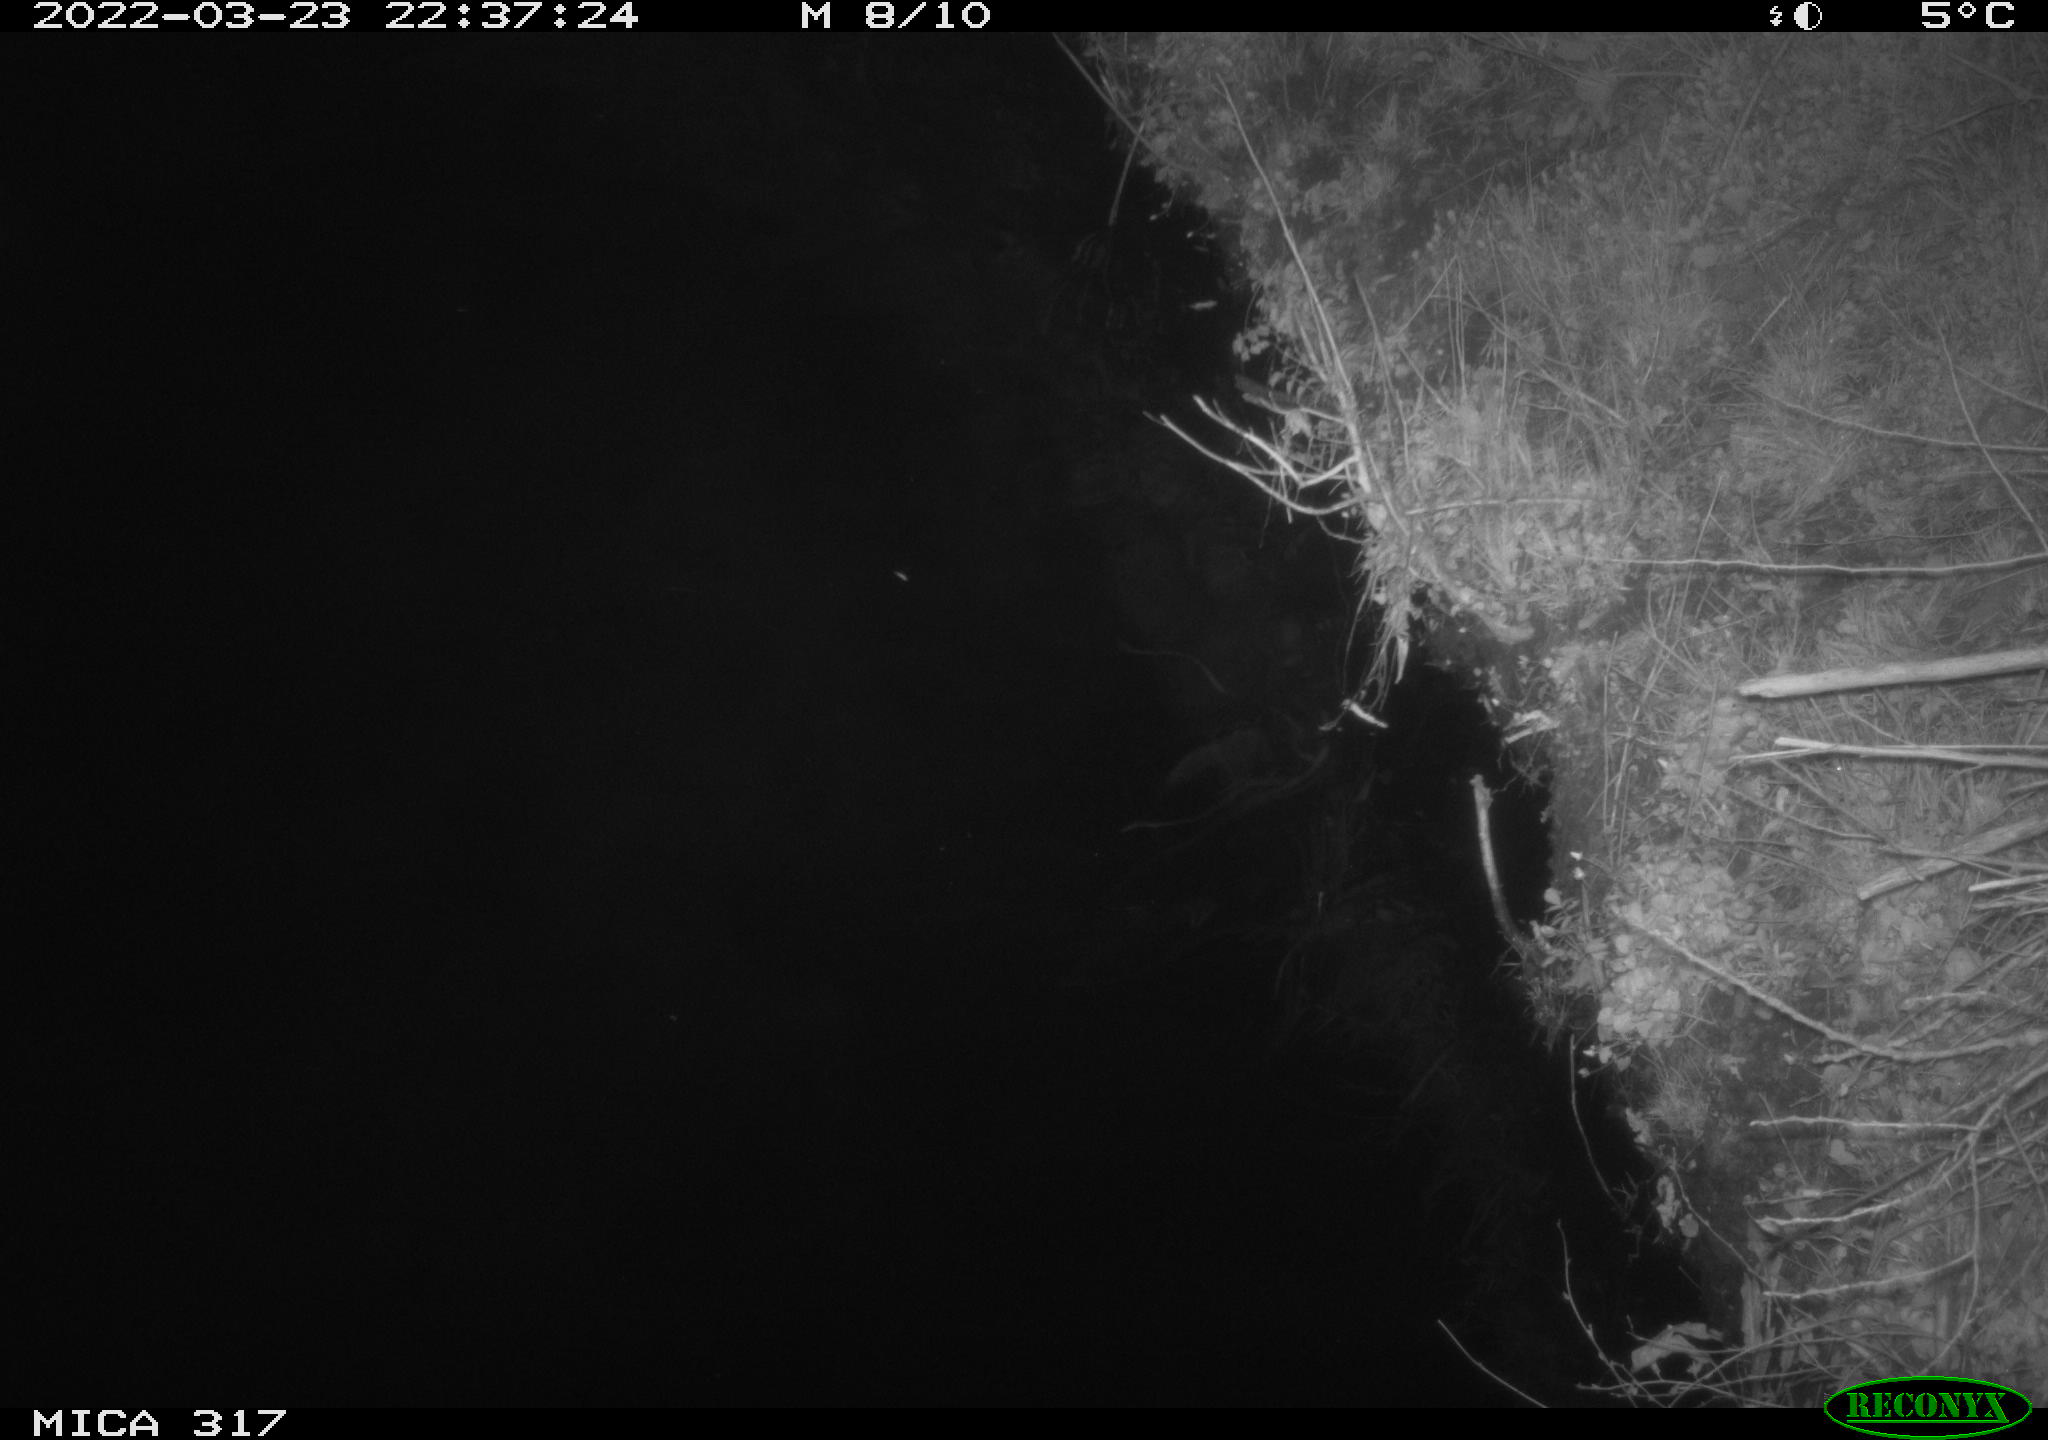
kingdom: Animalia
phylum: Chordata
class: Aves
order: Anseriformes
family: Anatidae
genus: Anas
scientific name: Anas platyrhynchos
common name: Mallard
